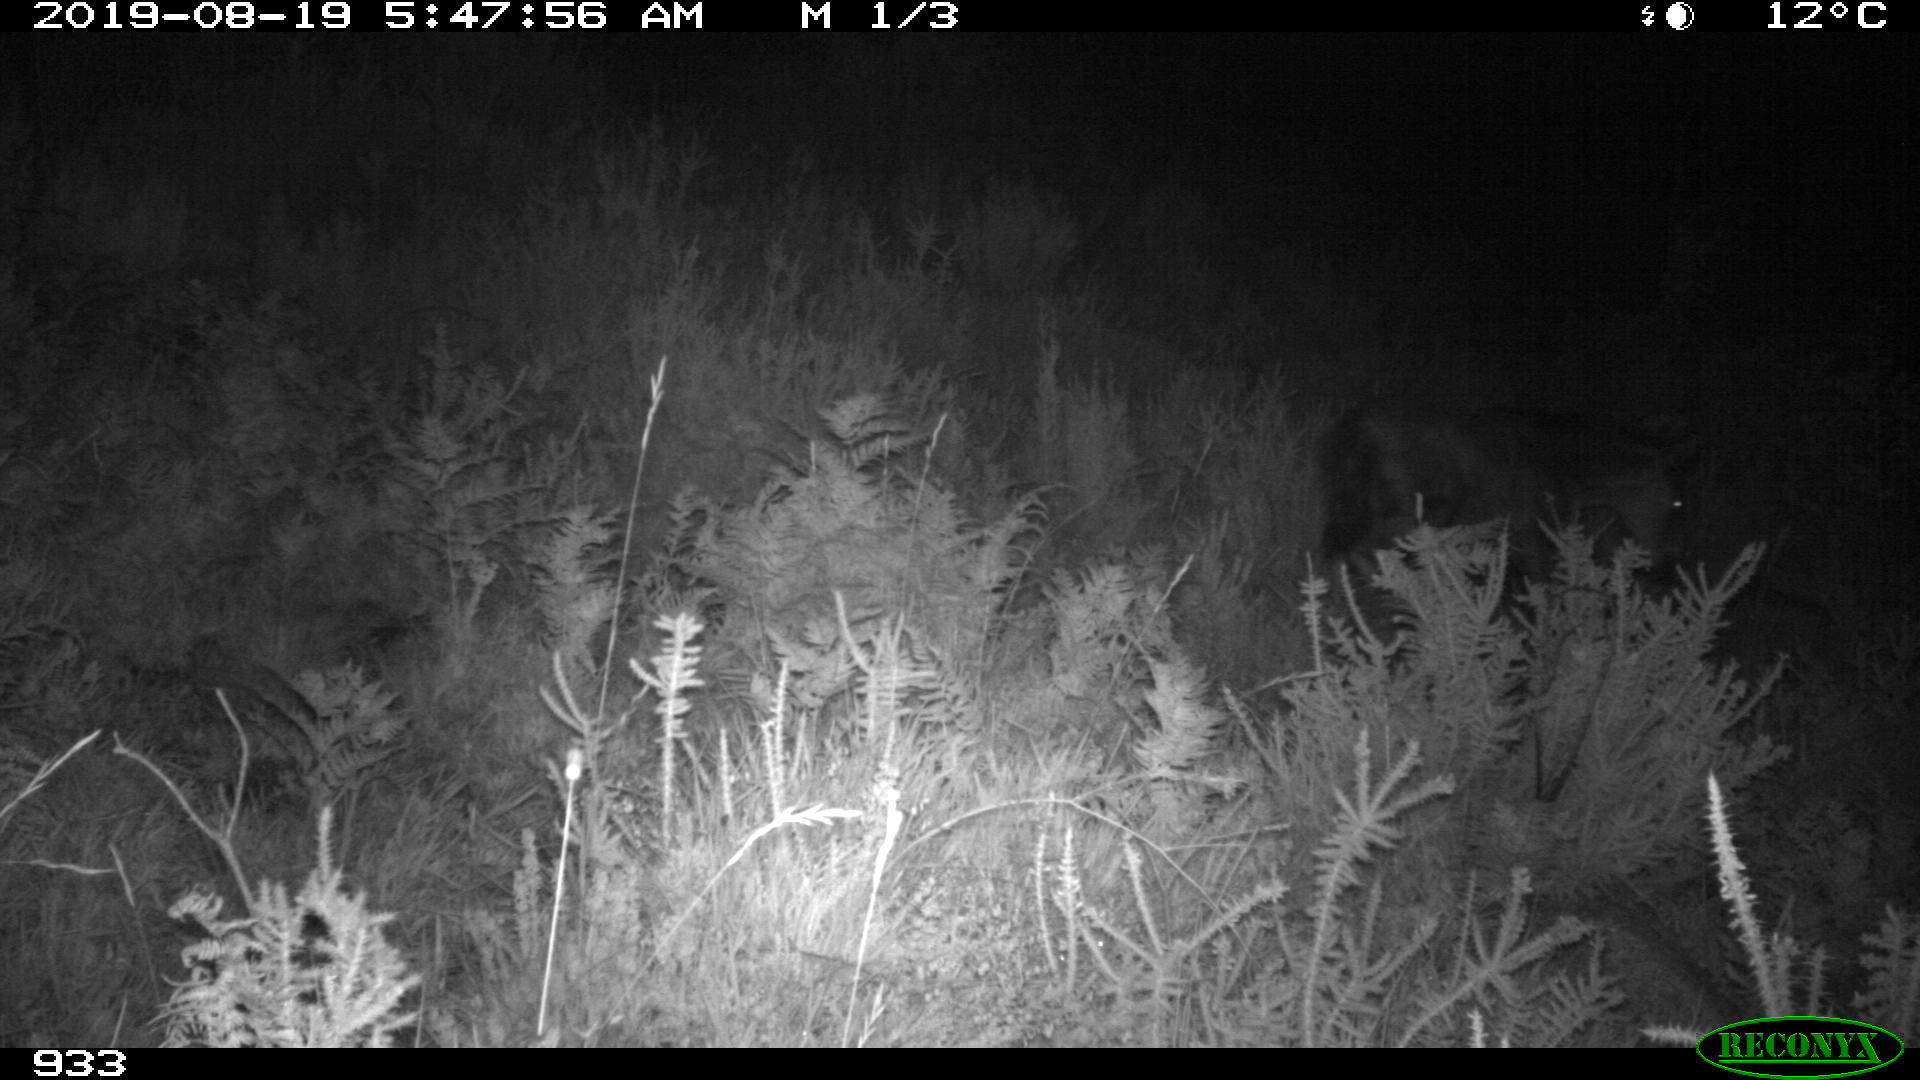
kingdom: Animalia
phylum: Chordata
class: Mammalia
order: Perissodactyla
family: Equidae
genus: Equus
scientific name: Equus caballus
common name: Horse
